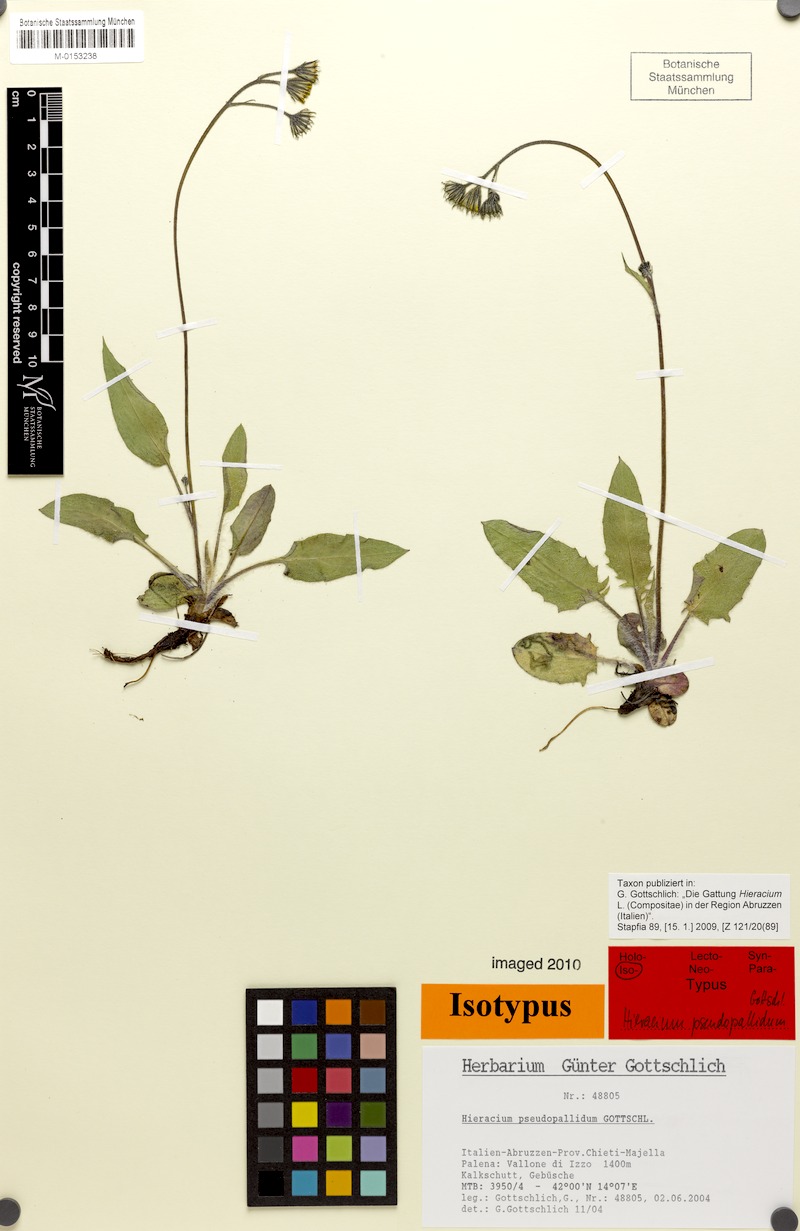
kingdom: Plantae
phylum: Tracheophyta
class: Magnoliopsida
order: Asterales
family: Asteraceae
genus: Hieracium
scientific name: Hieracium pseudopallidum
